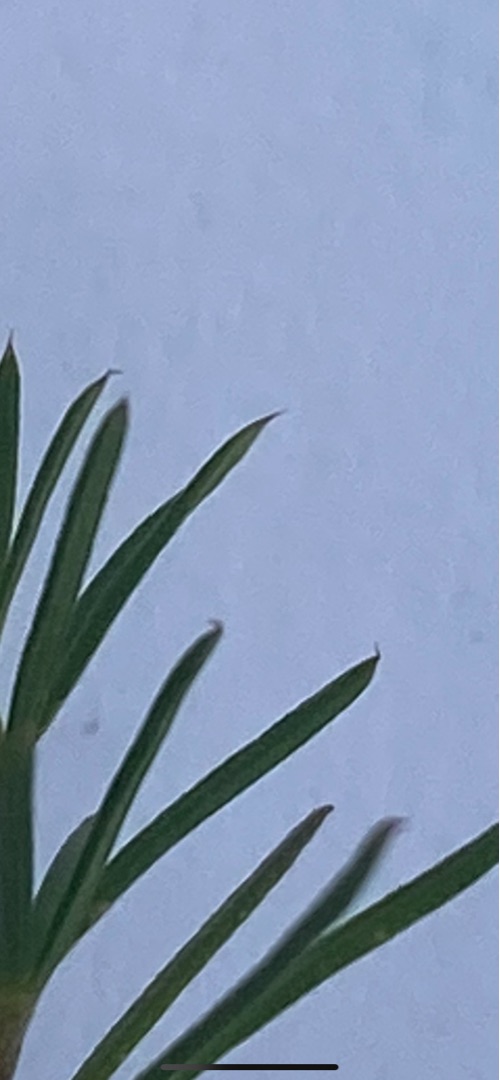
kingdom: Plantae
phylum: Tracheophyta
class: Magnoliopsida
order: Gentianales
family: Rubiaceae
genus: Galium
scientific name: Galium verum
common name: Gul snerre
